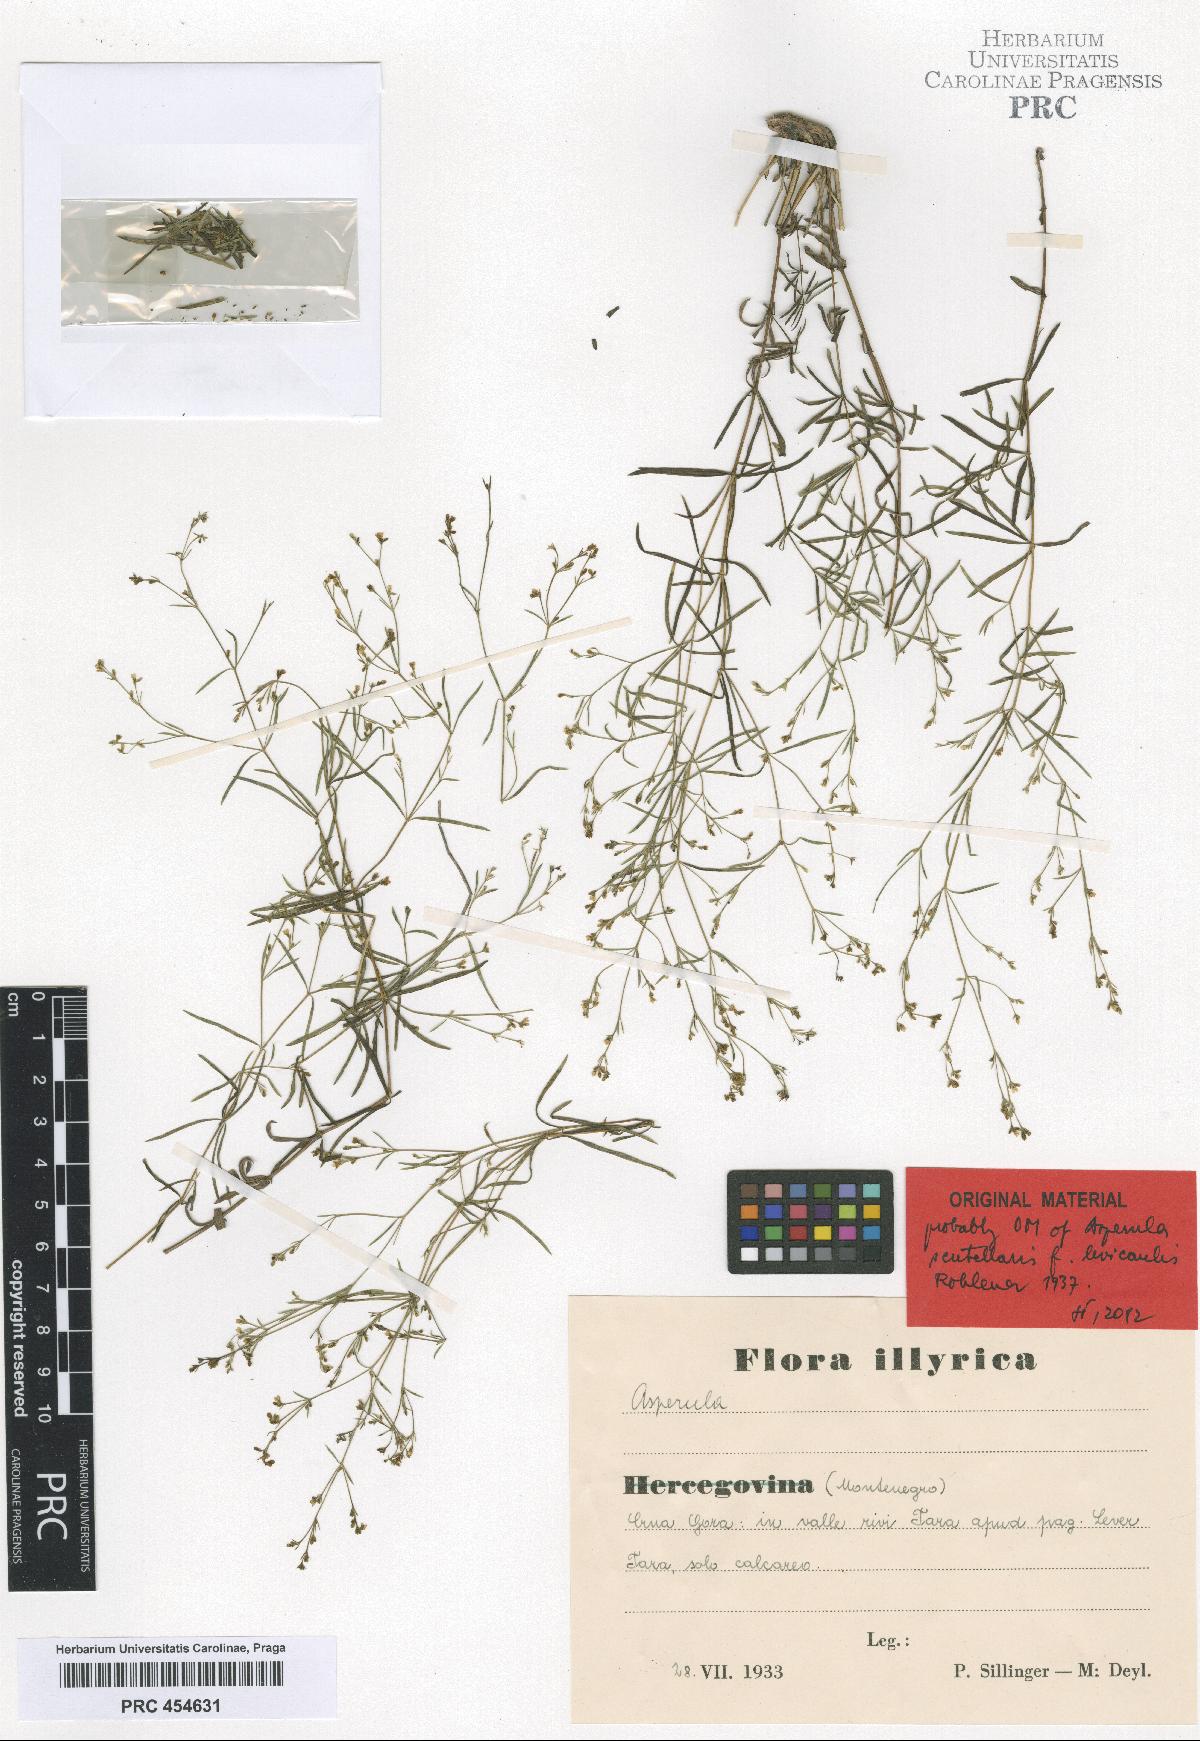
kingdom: Plantae
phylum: Tracheophyta
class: Magnoliopsida
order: Gentianales
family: Rubiaceae
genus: Thliphthisa
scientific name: Thliphthisa rupestris
